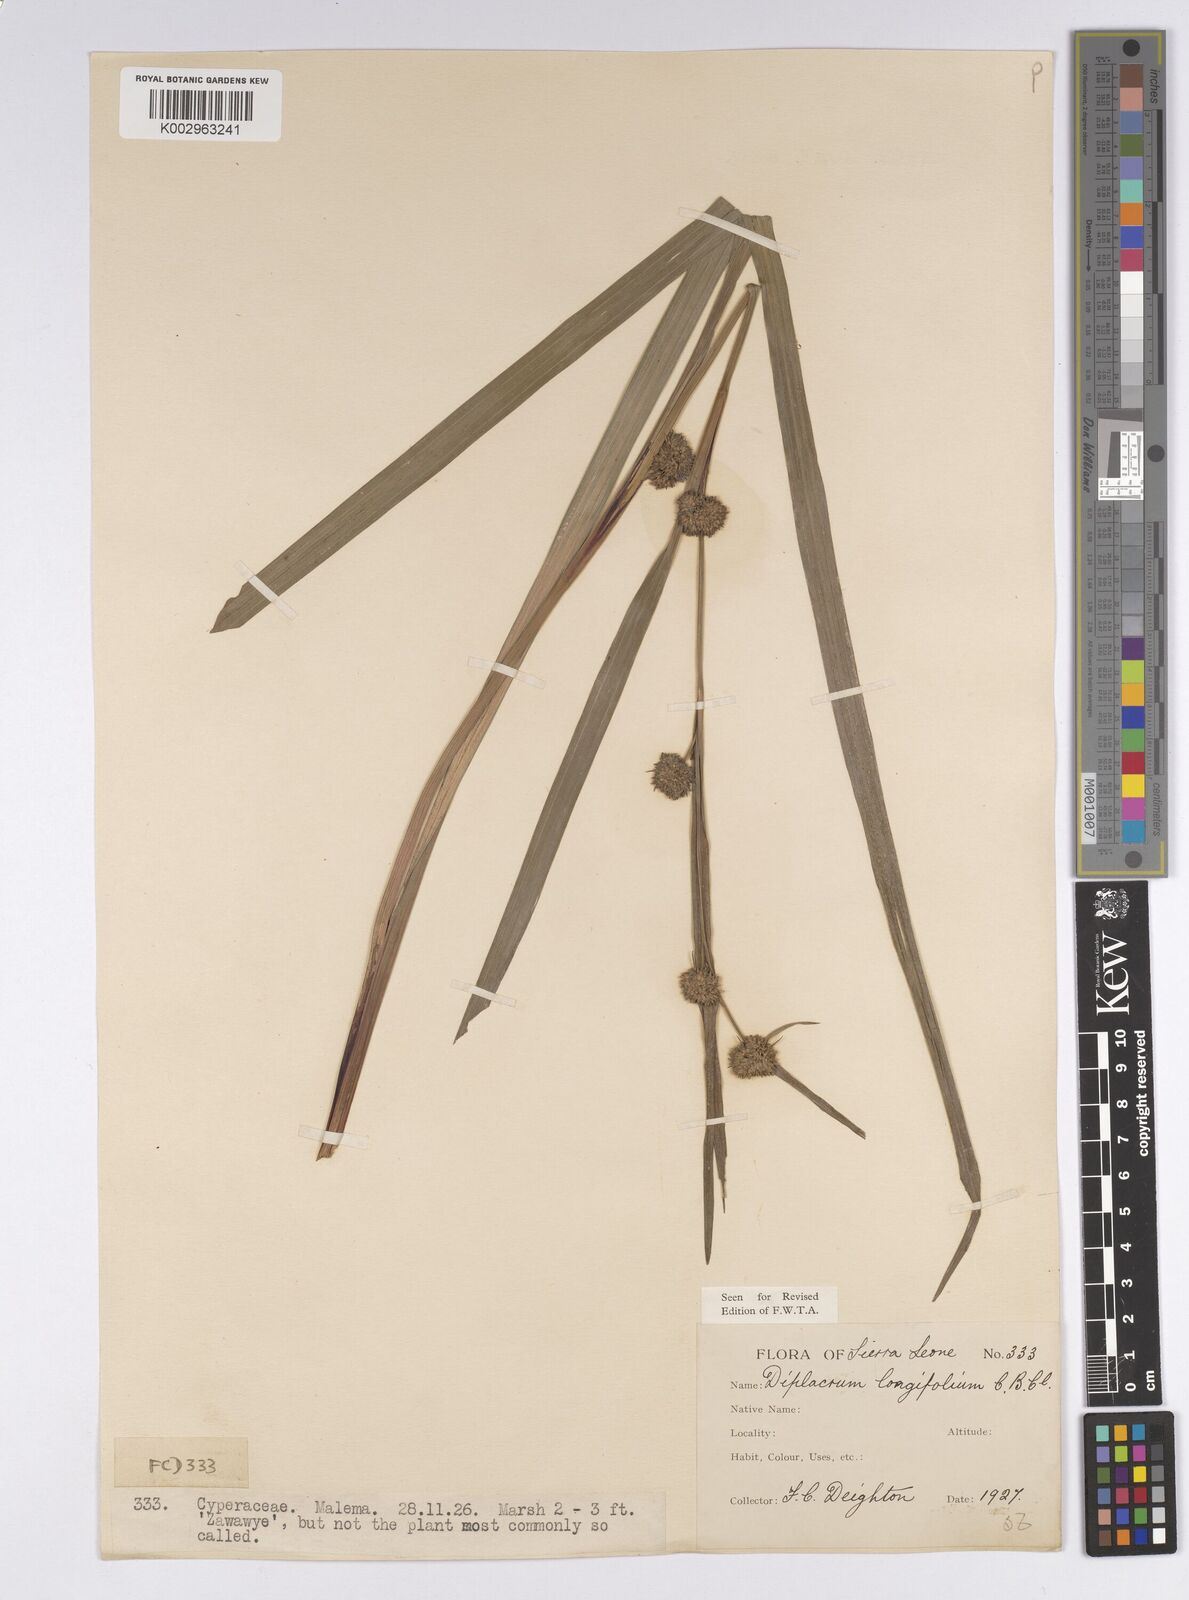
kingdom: Plantae
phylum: Tracheophyta
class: Liliopsida
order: Poales
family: Cyperaceae
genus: Diplacrum
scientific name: Diplacrum capitatum
